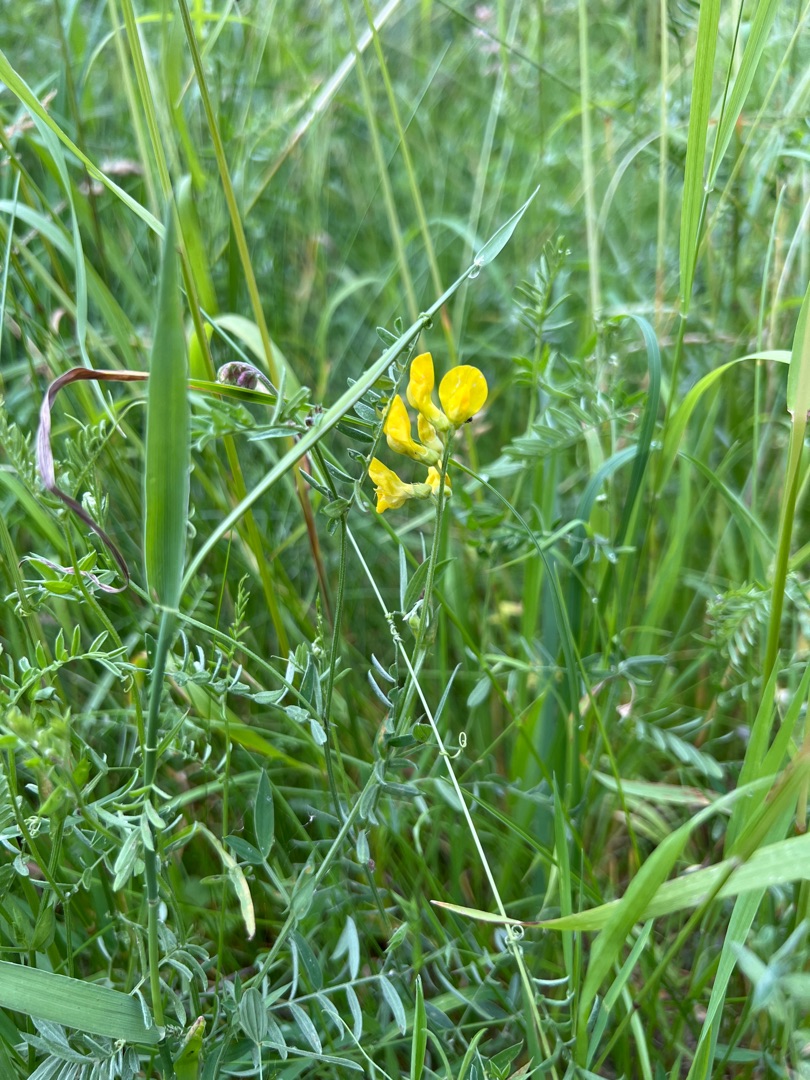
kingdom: Plantae
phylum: Tracheophyta
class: Magnoliopsida
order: Fabales
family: Fabaceae
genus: Lathyrus
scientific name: Lathyrus pratensis
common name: Gul fladbælg
